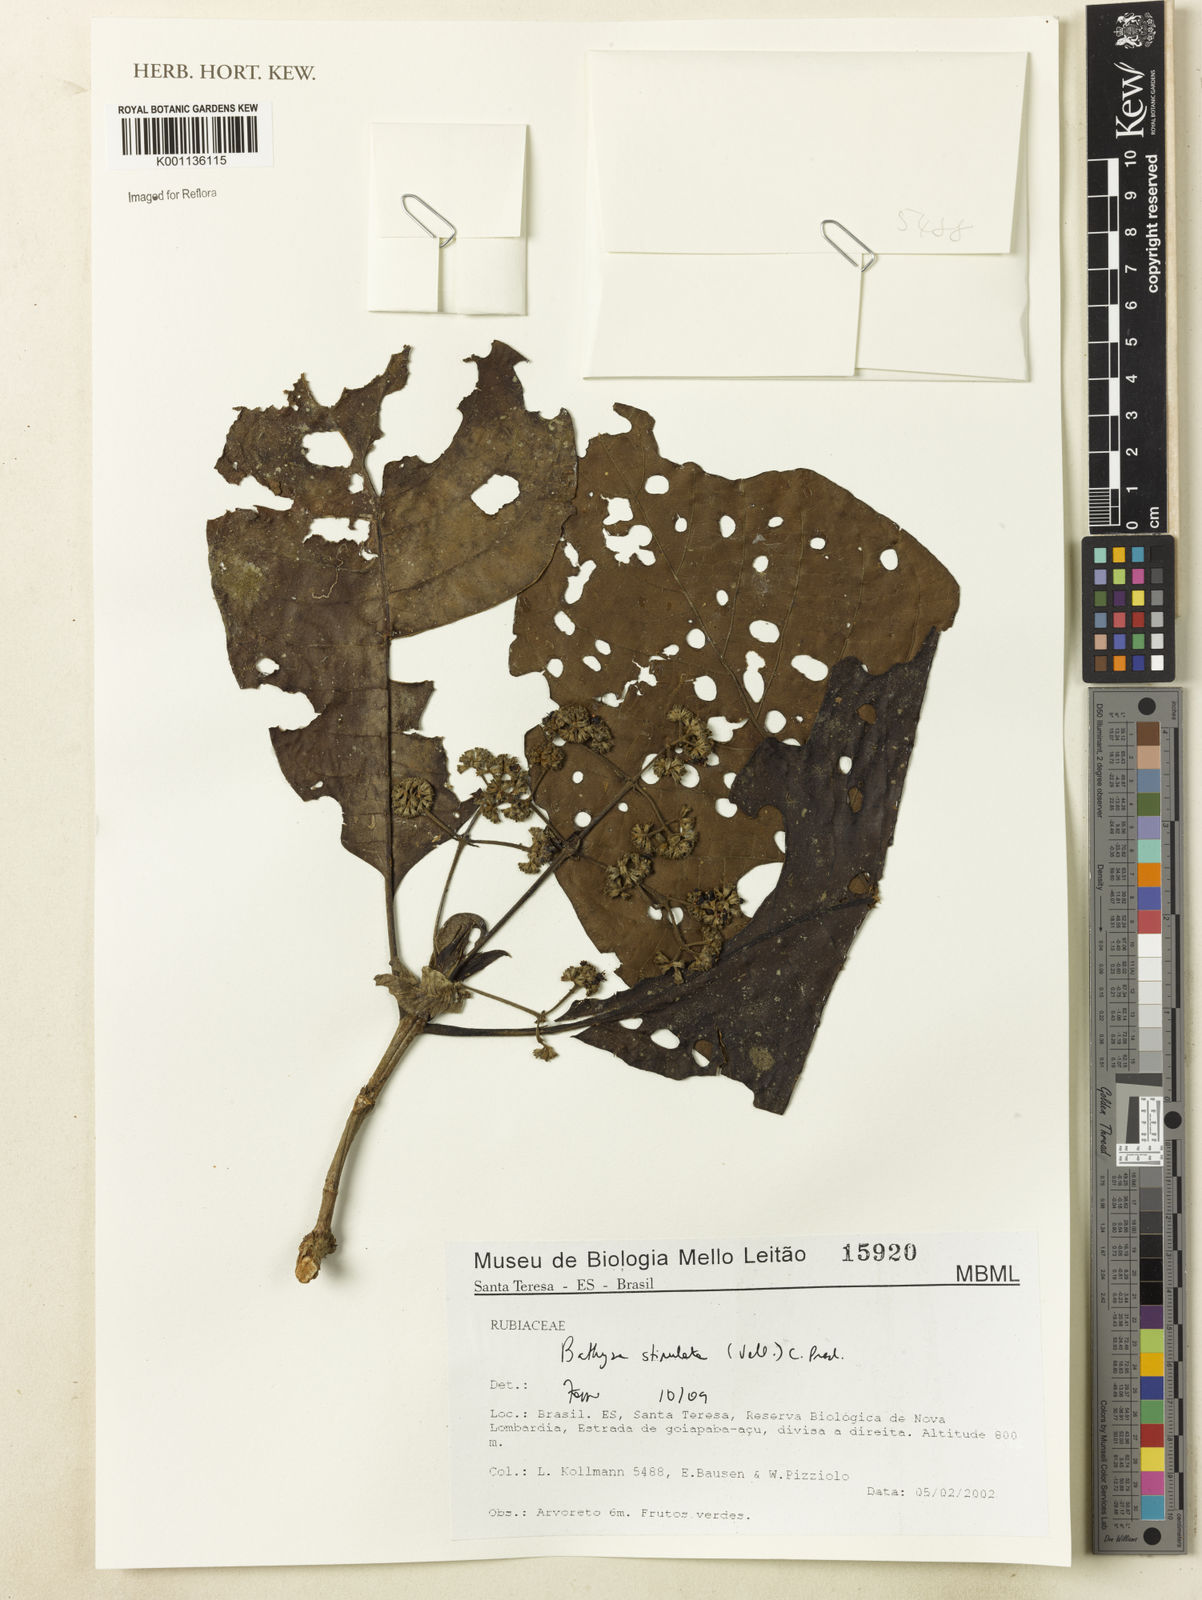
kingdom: Plantae
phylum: Tracheophyta
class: Magnoliopsida
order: Gentianales
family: Rubiaceae
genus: Bathysa
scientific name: Bathysa stipulata
